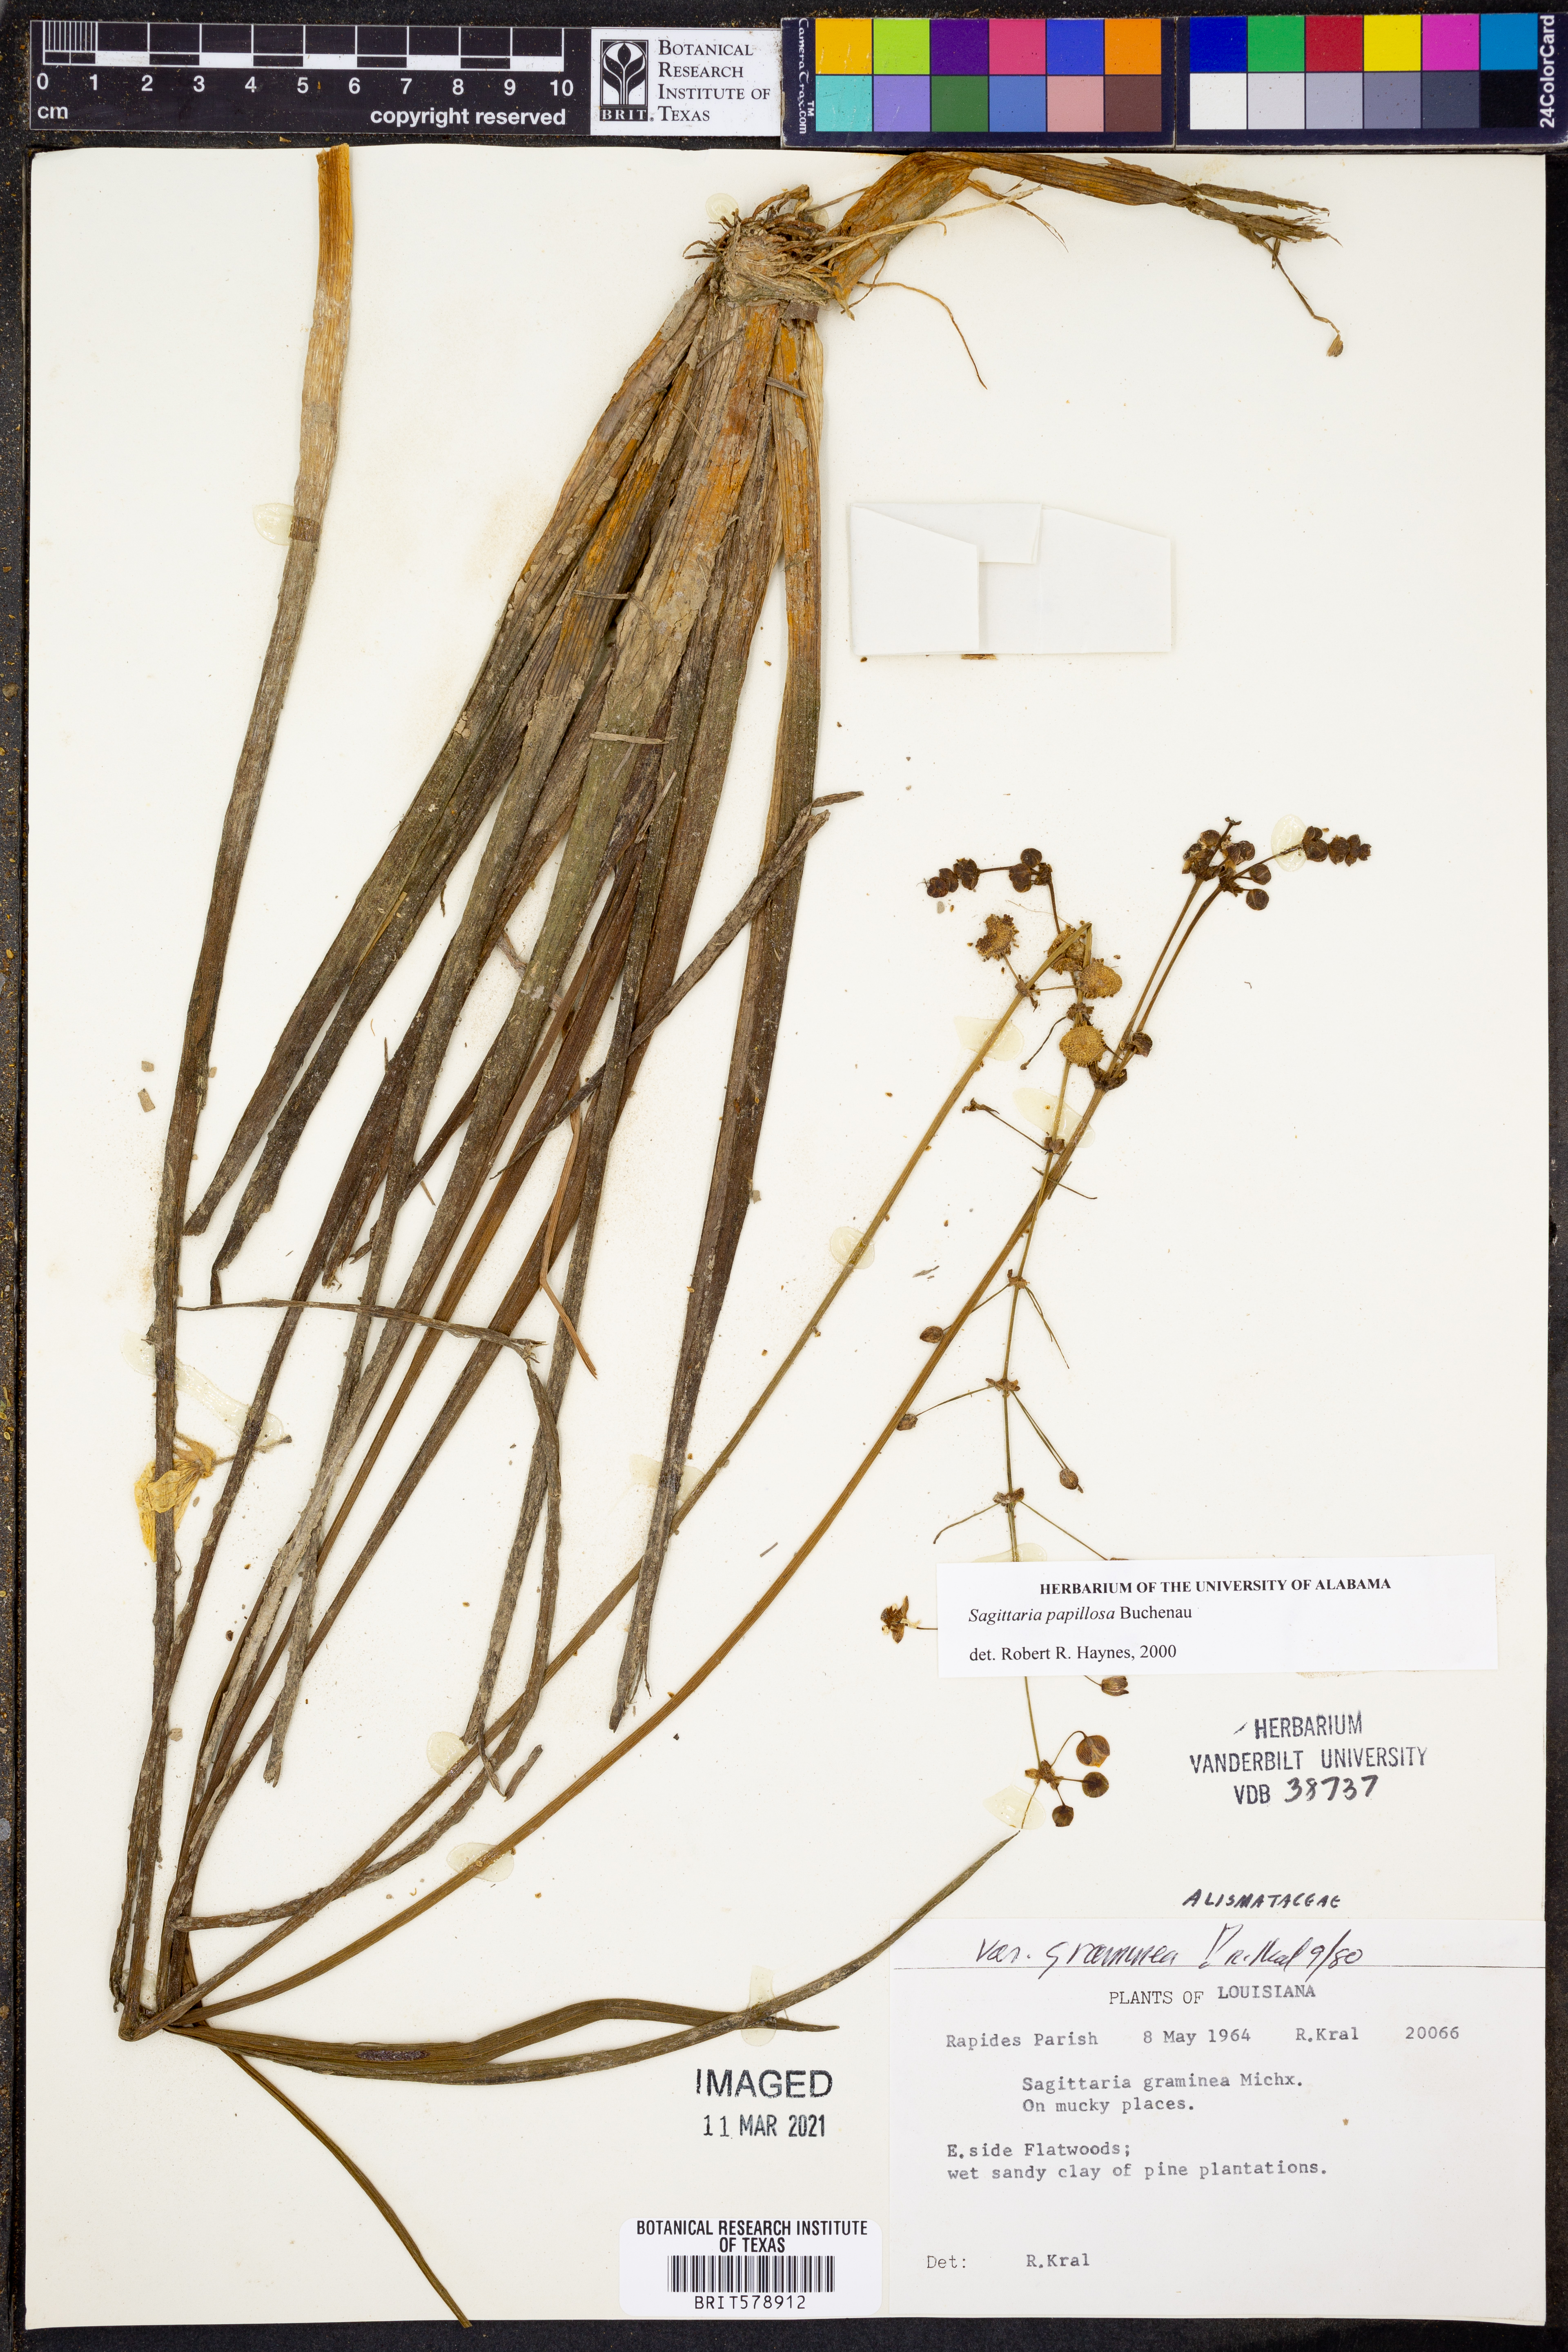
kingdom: Plantae
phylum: Tracheophyta
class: Liliopsida
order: Alismatales
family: Alismataceae
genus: Sagittaria
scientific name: Sagittaria papillosa
